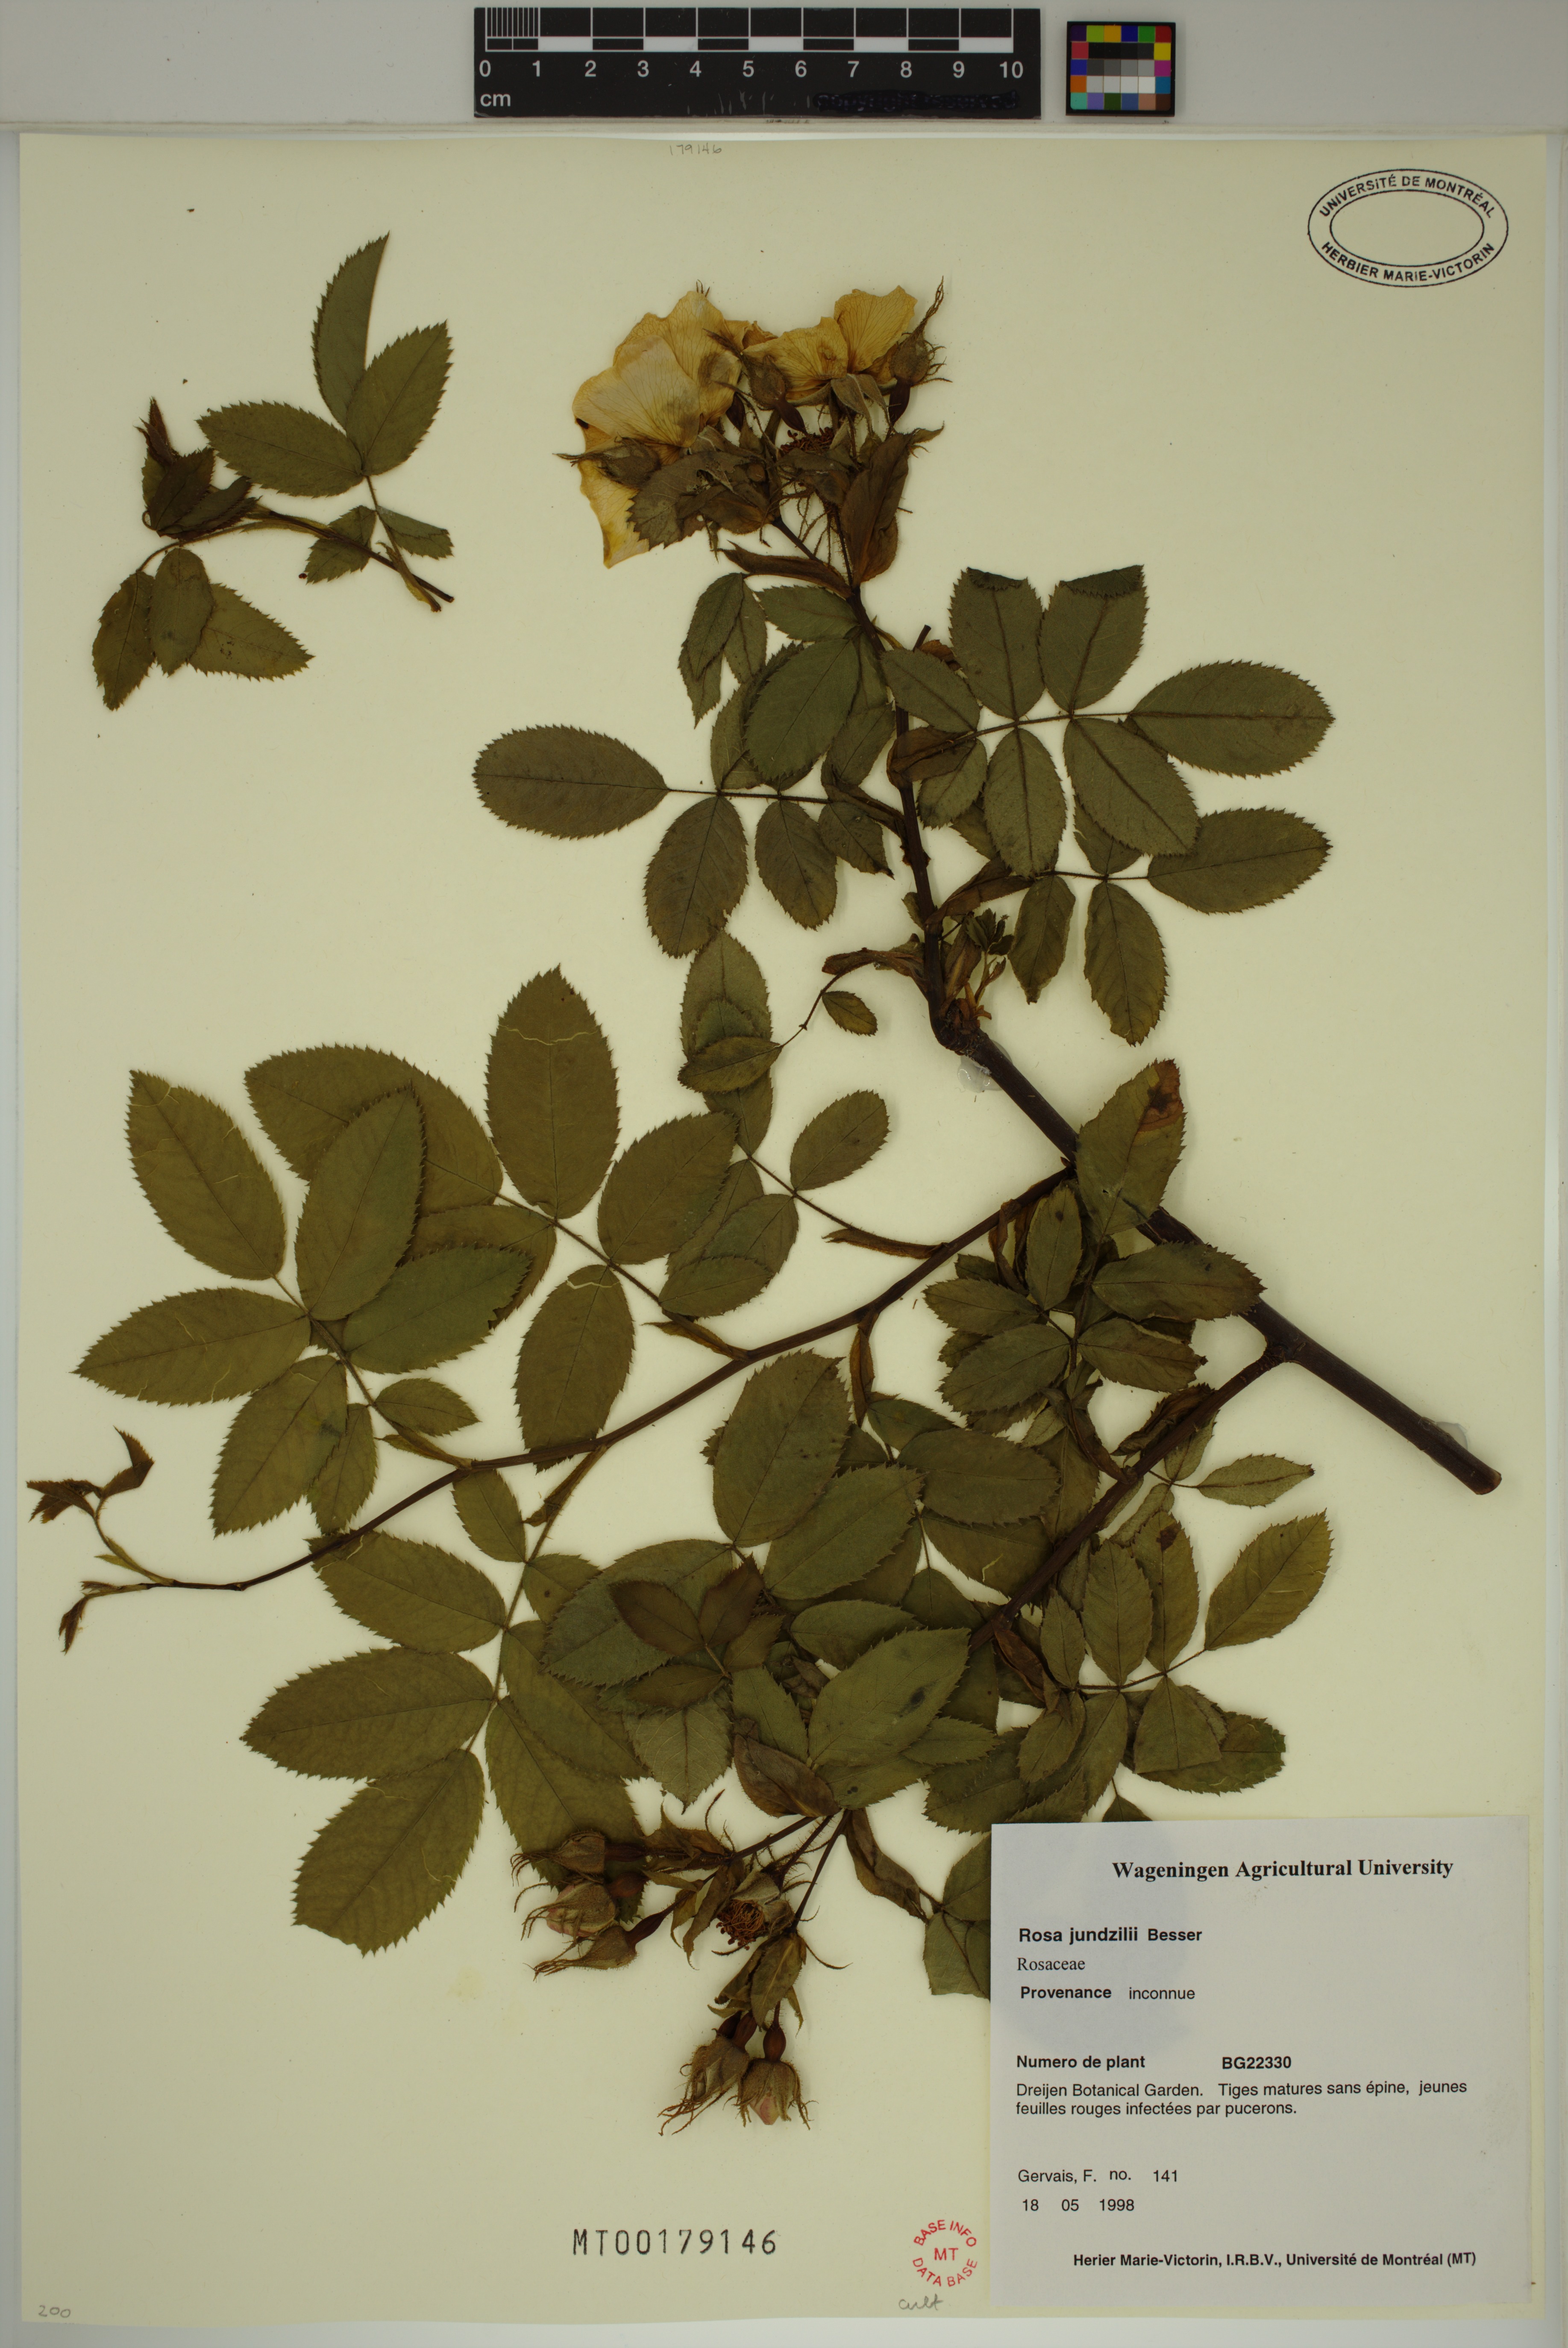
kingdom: Plantae
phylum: Tracheophyta
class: Magnoliopsida
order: Rosales
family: Rosaceae
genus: Rosa
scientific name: Rosa marginata
